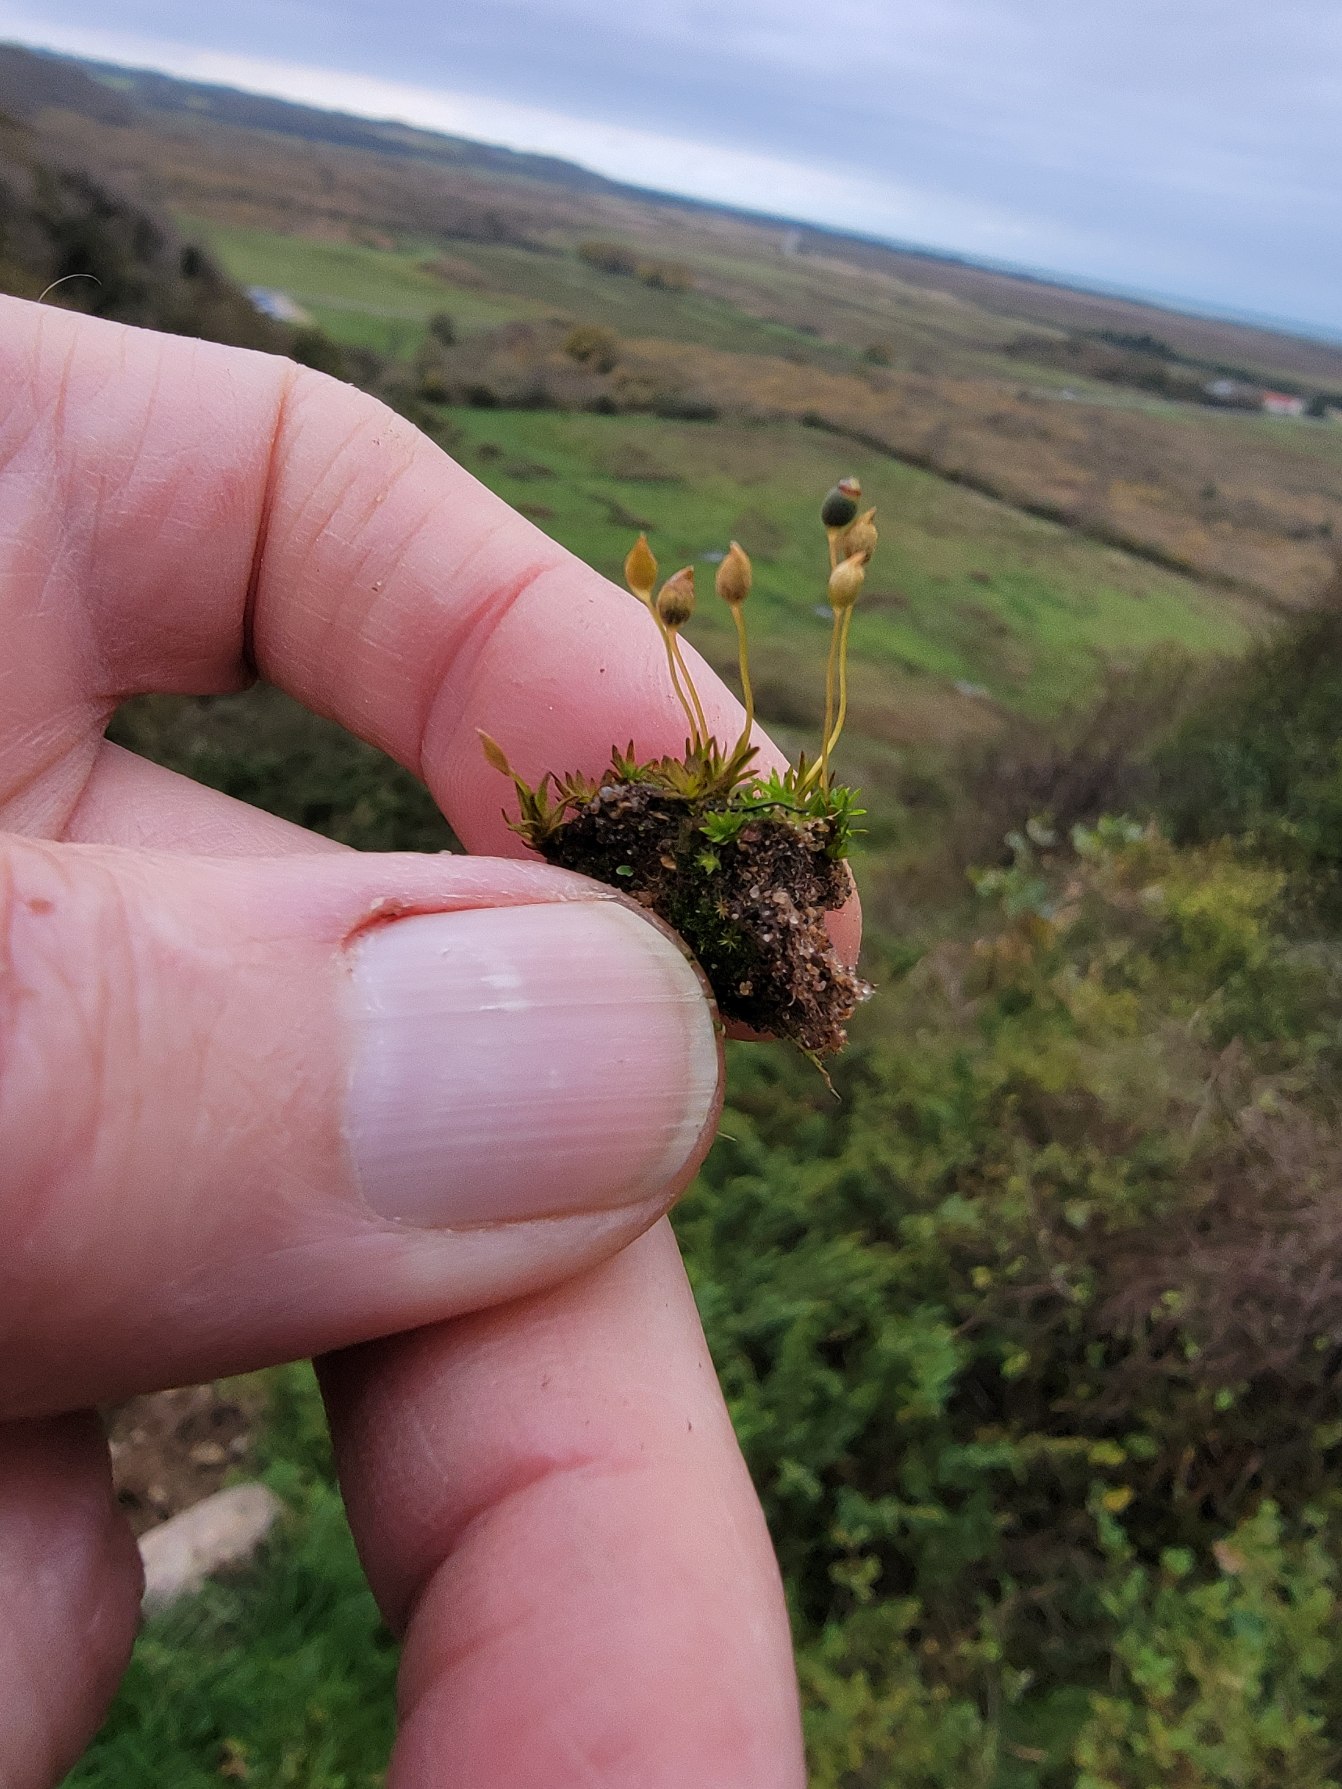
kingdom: Plantae
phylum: Bryophyta
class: Polytrichopsida
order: Polytrichales
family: Polytrichaceae
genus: Pogonatum
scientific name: Pogonatum nanum
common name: Dværg-urnekapsel
